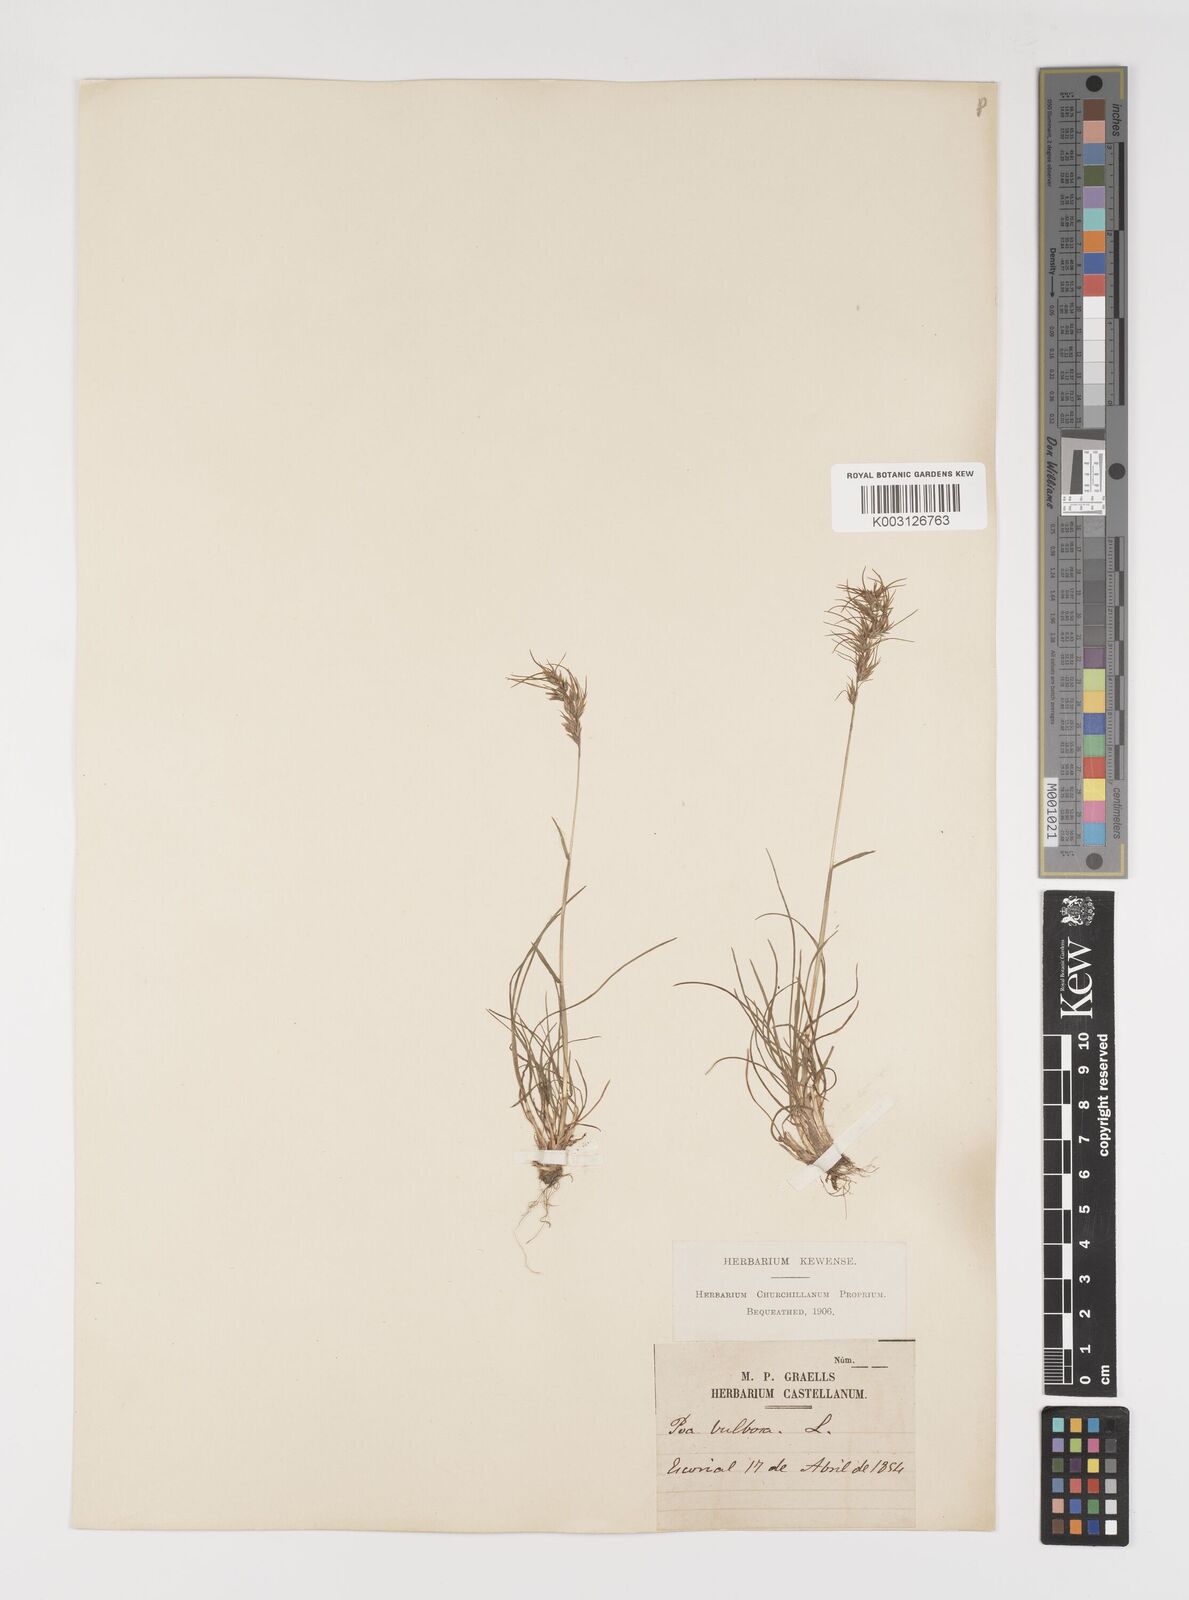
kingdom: Plantae
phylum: Tracheophyta
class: Liliopsida
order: Poales
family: Poaceae
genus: Poa
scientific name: Poa bulbosa
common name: Bulbous bluegrass
